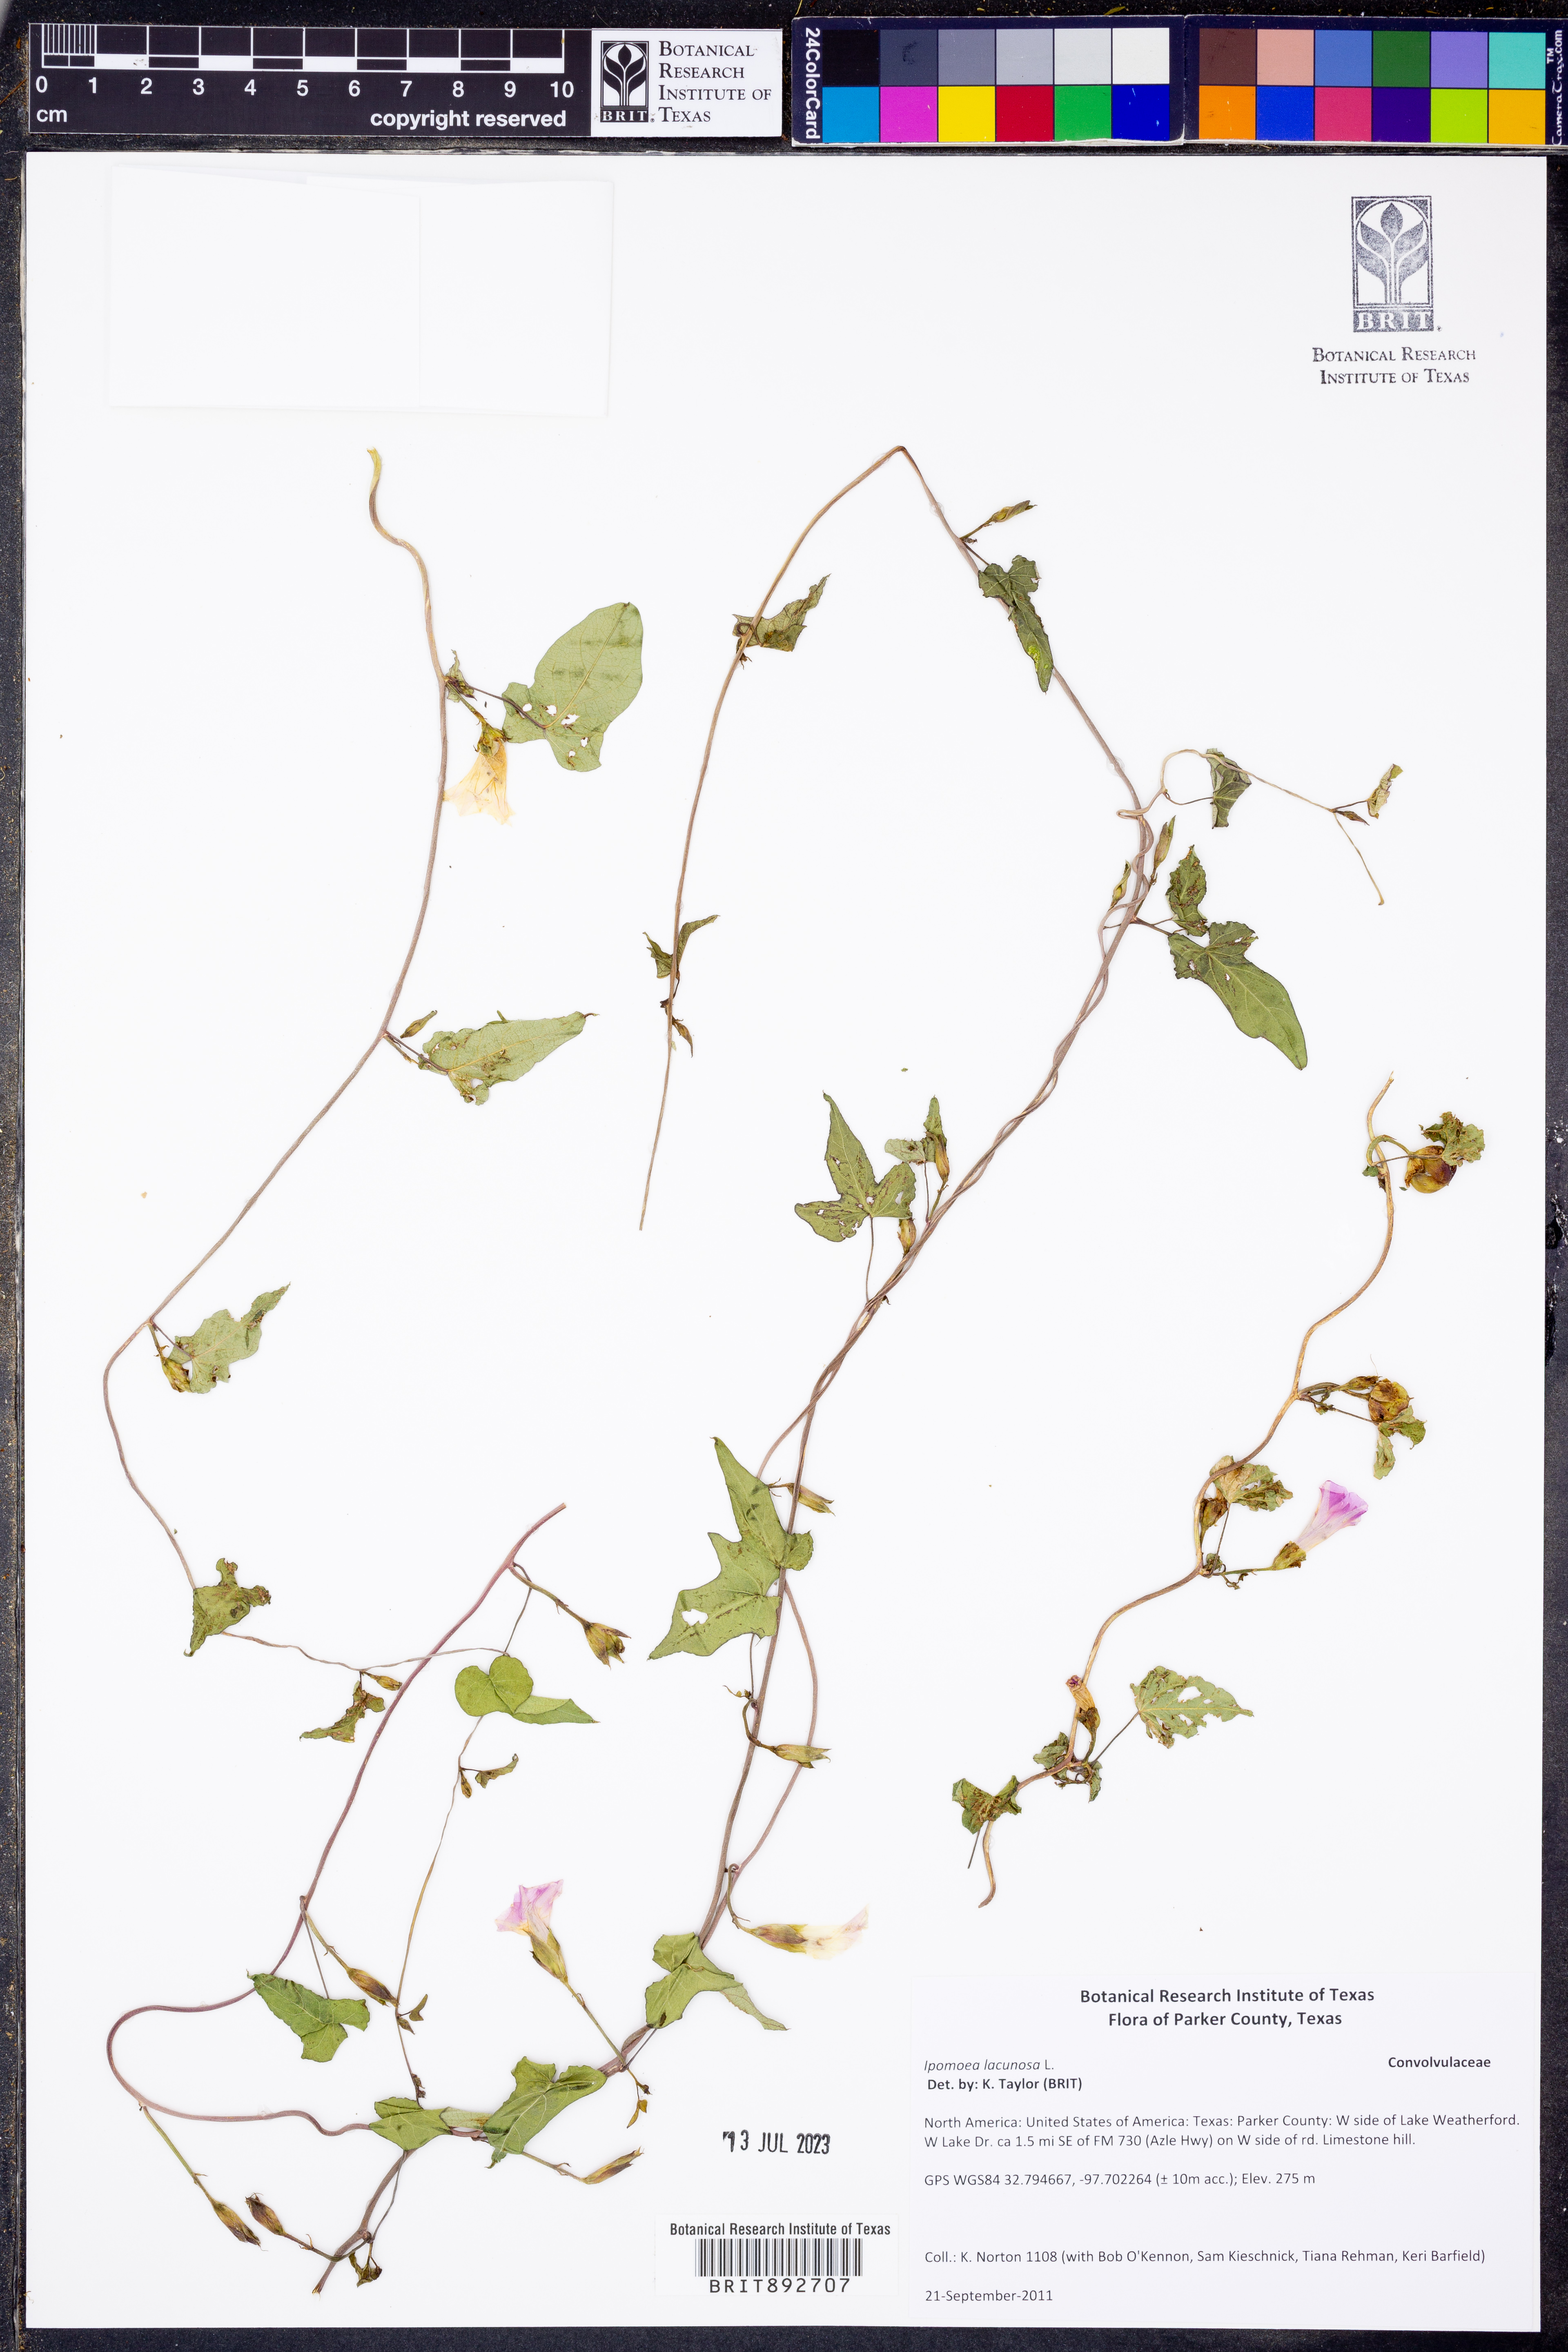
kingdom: Plantae
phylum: Tracheophyta
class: Magnoliopsida
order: Solanales
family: Convolvulaceae
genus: Ipomoea
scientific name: Ipomoea lacunosa
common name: White morning-glory
